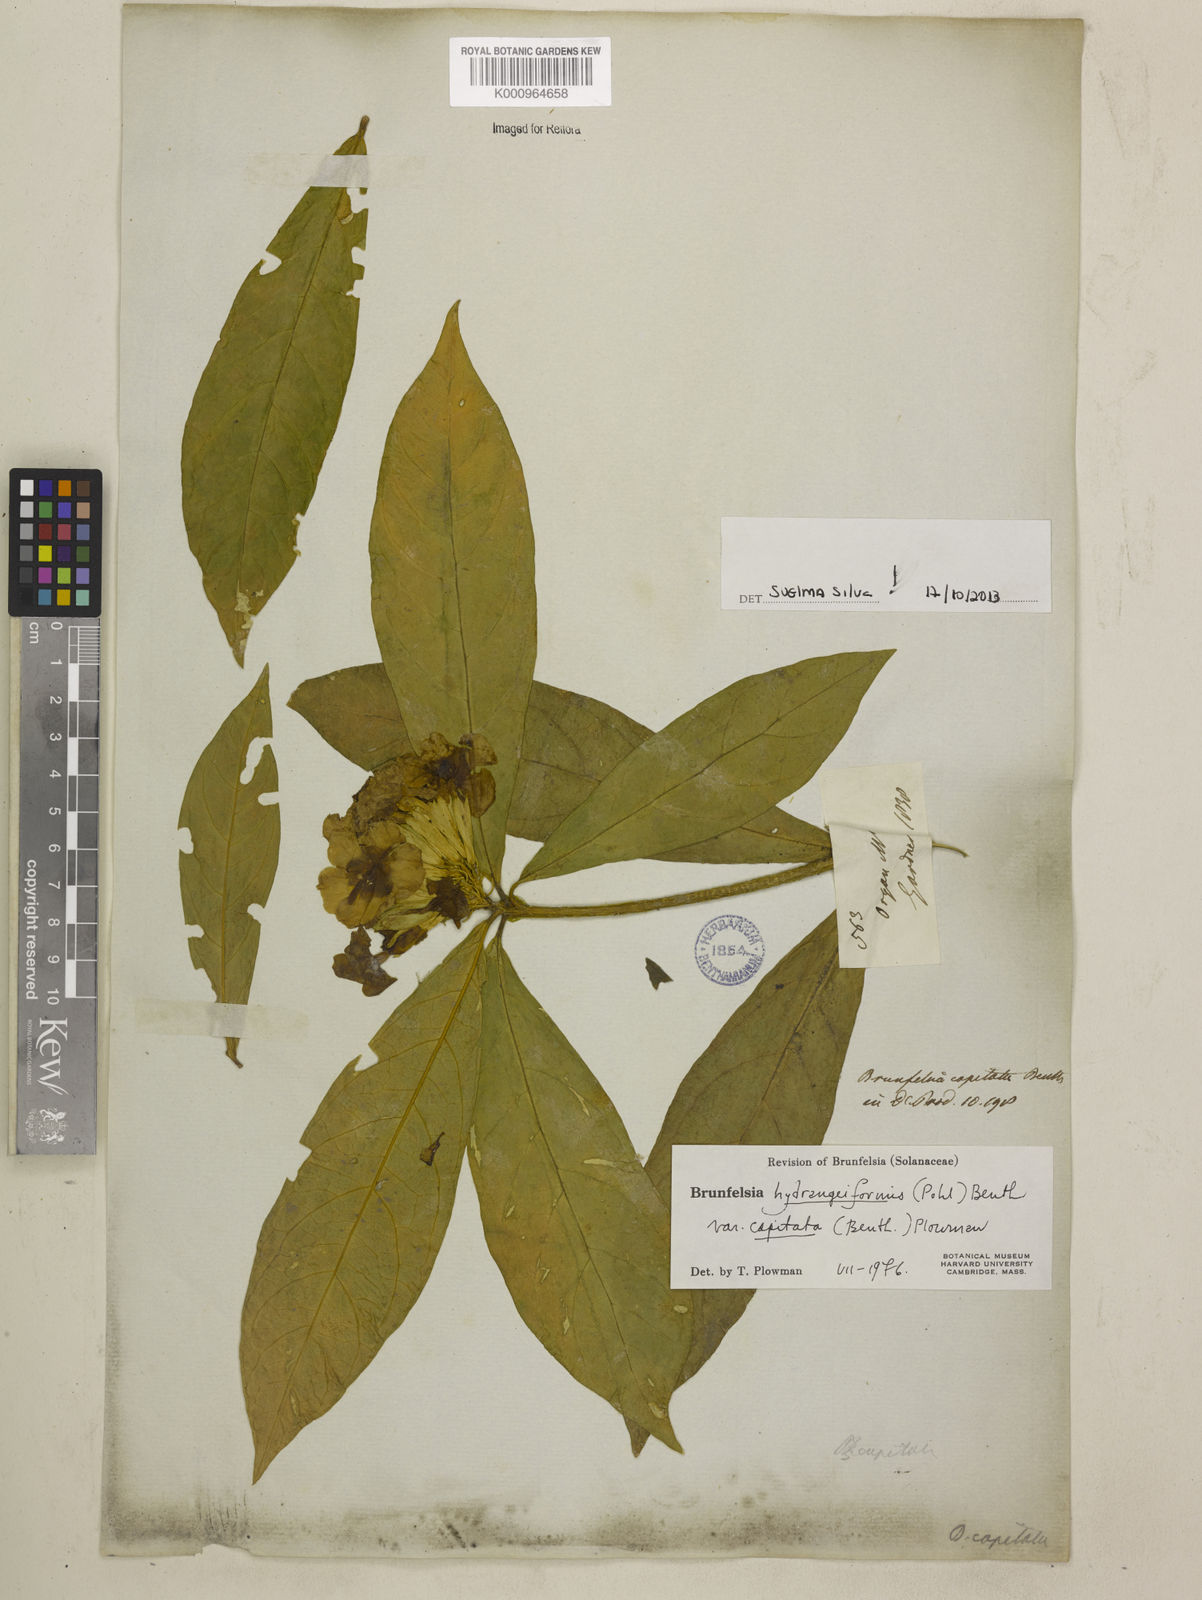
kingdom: Plantae
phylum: Tracheophyta
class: Magnoliopsida
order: Solanales
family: Solanaceae
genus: Brunfelsia
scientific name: Brunfelsia hydrangeiformis
